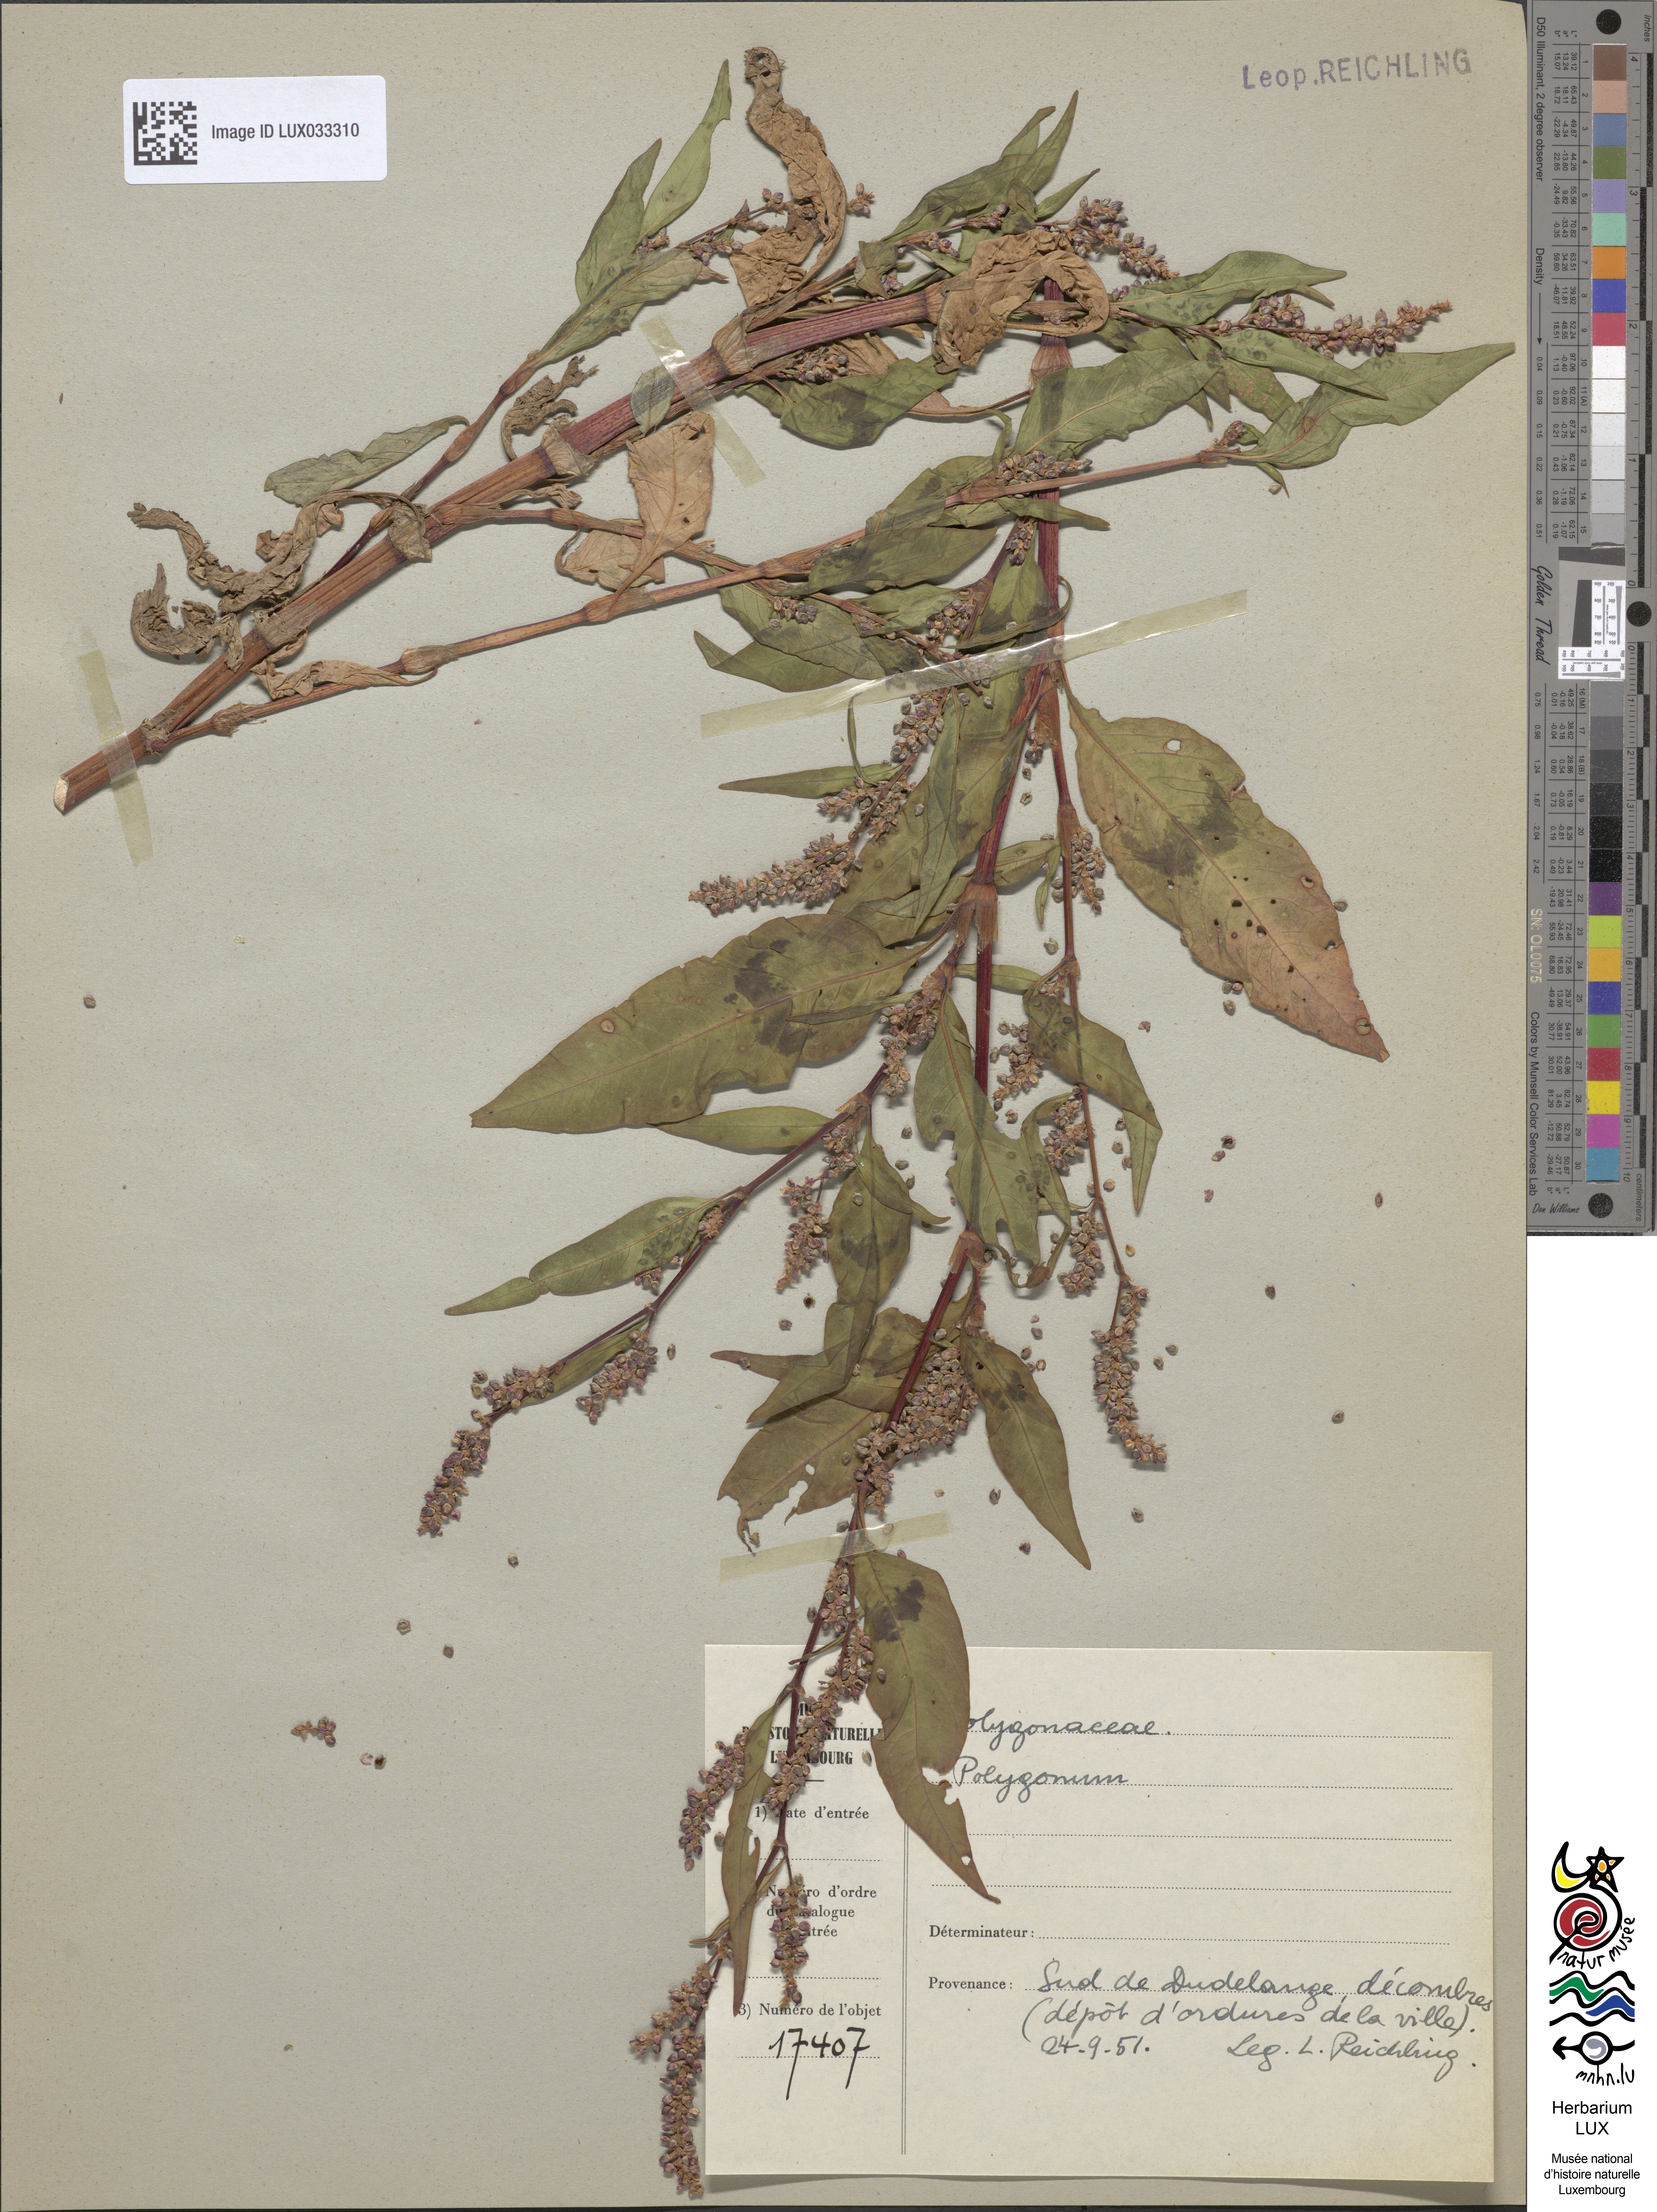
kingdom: Plantae
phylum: Tracheophyta
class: Magnoliopsida
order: Caryophyllales
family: Polygonaceae
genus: Polygonum
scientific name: Polygonum
